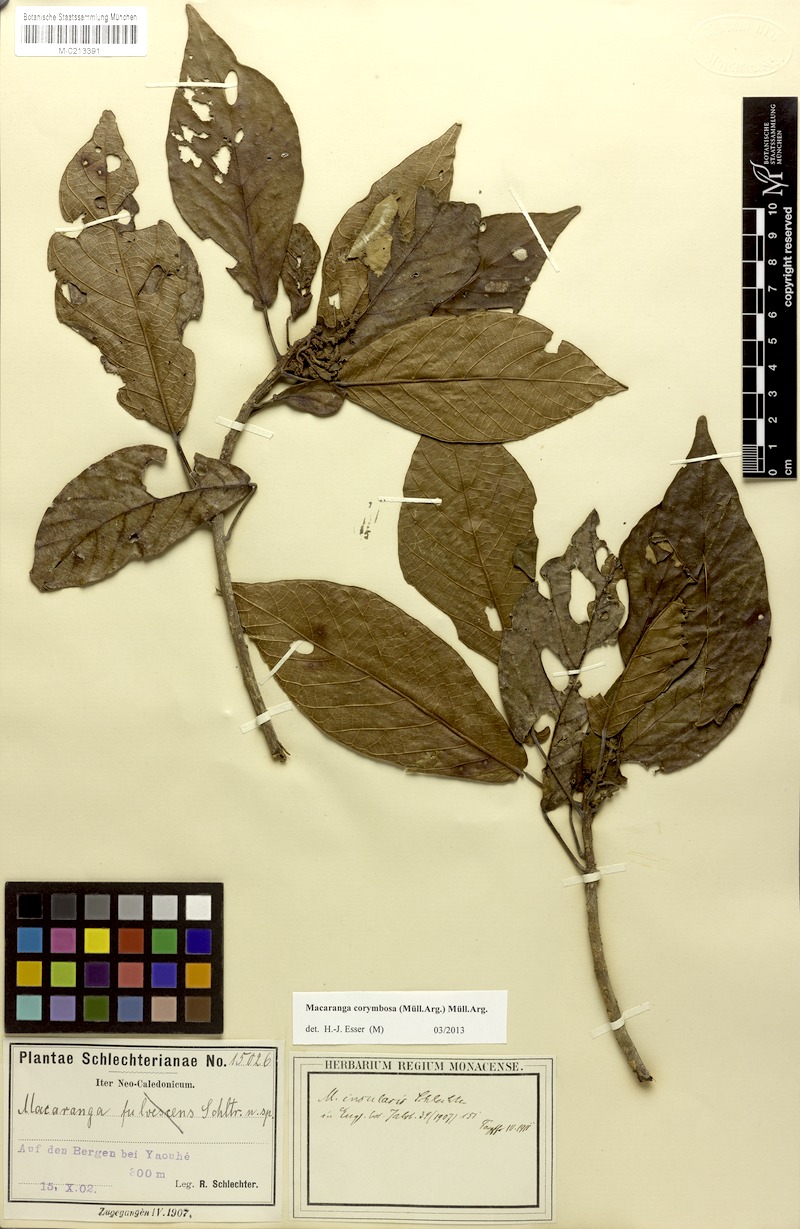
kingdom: Plantae
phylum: Tracheophyta
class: Magnoliopsida
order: Malpighiales
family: Euphorbiaceae
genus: Macaranga
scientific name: Macaranga corymbosa
